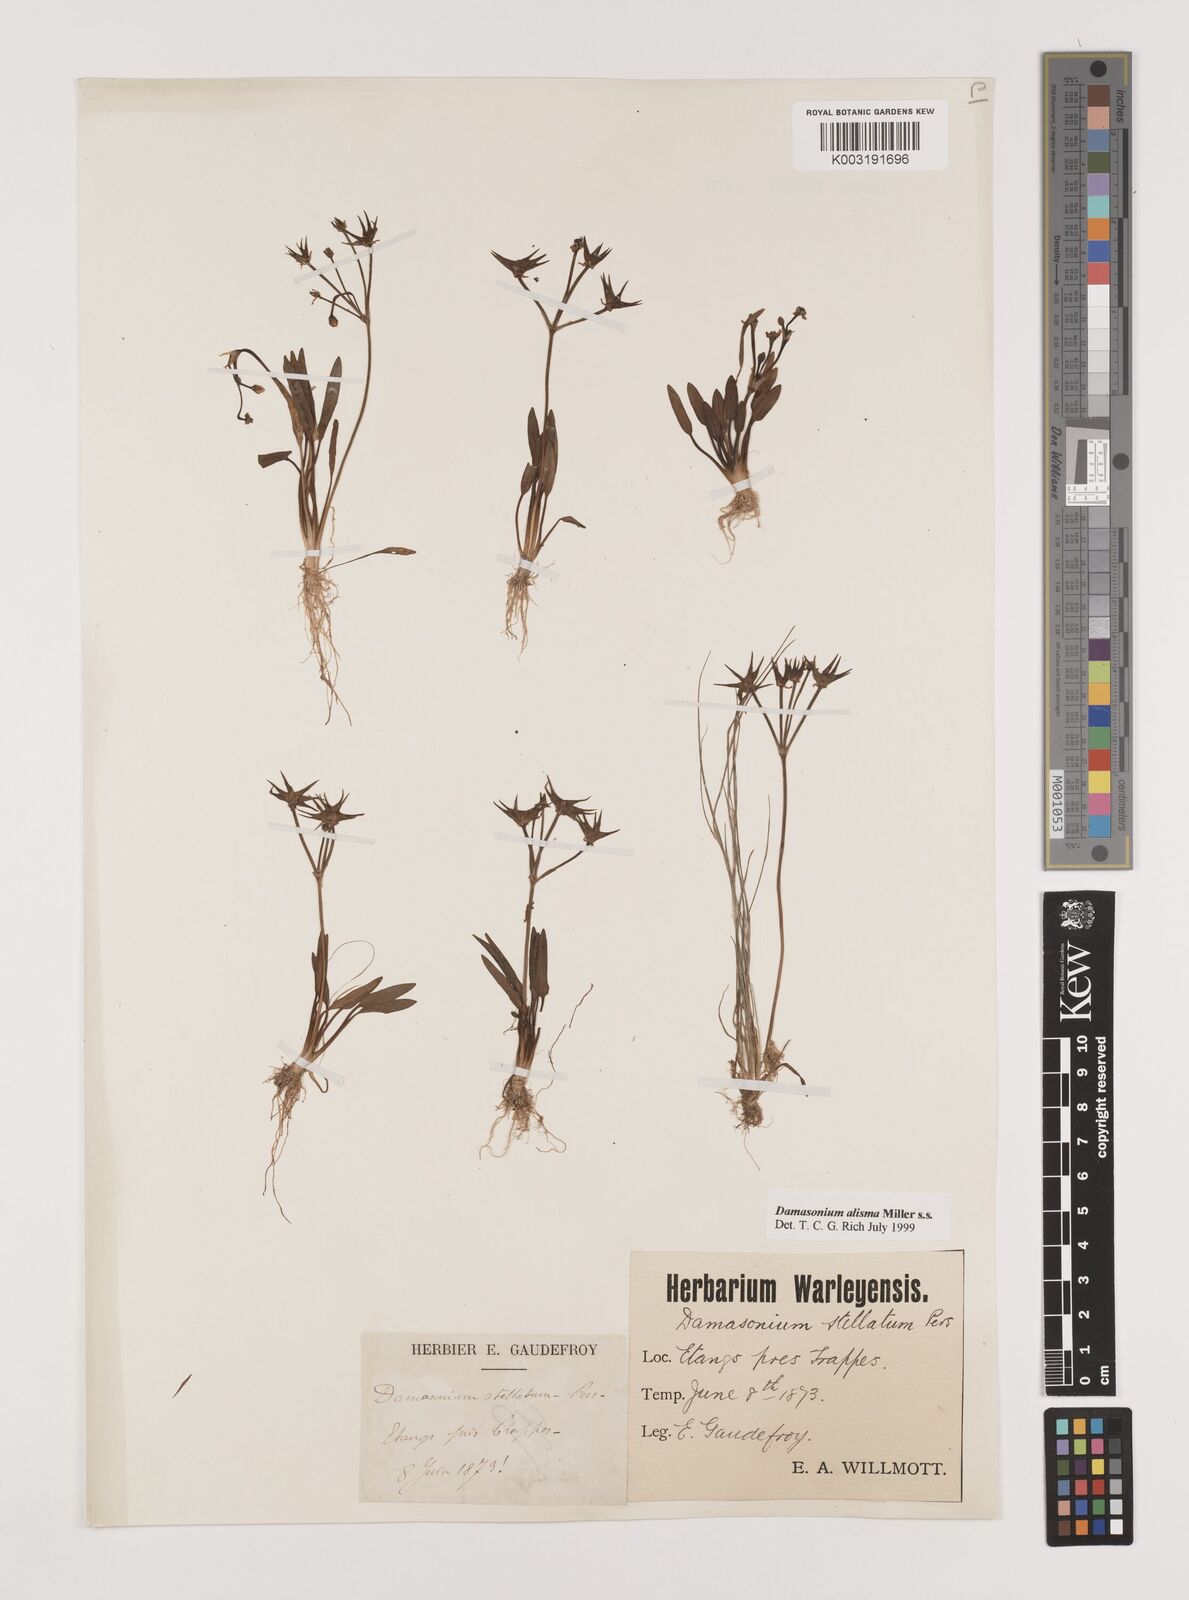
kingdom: Plantae
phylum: Tracheophyta
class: Liliopsida
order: Alismatales
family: Alismataceae
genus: Damasonium
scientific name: Damasonium alisma
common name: Starfruit
